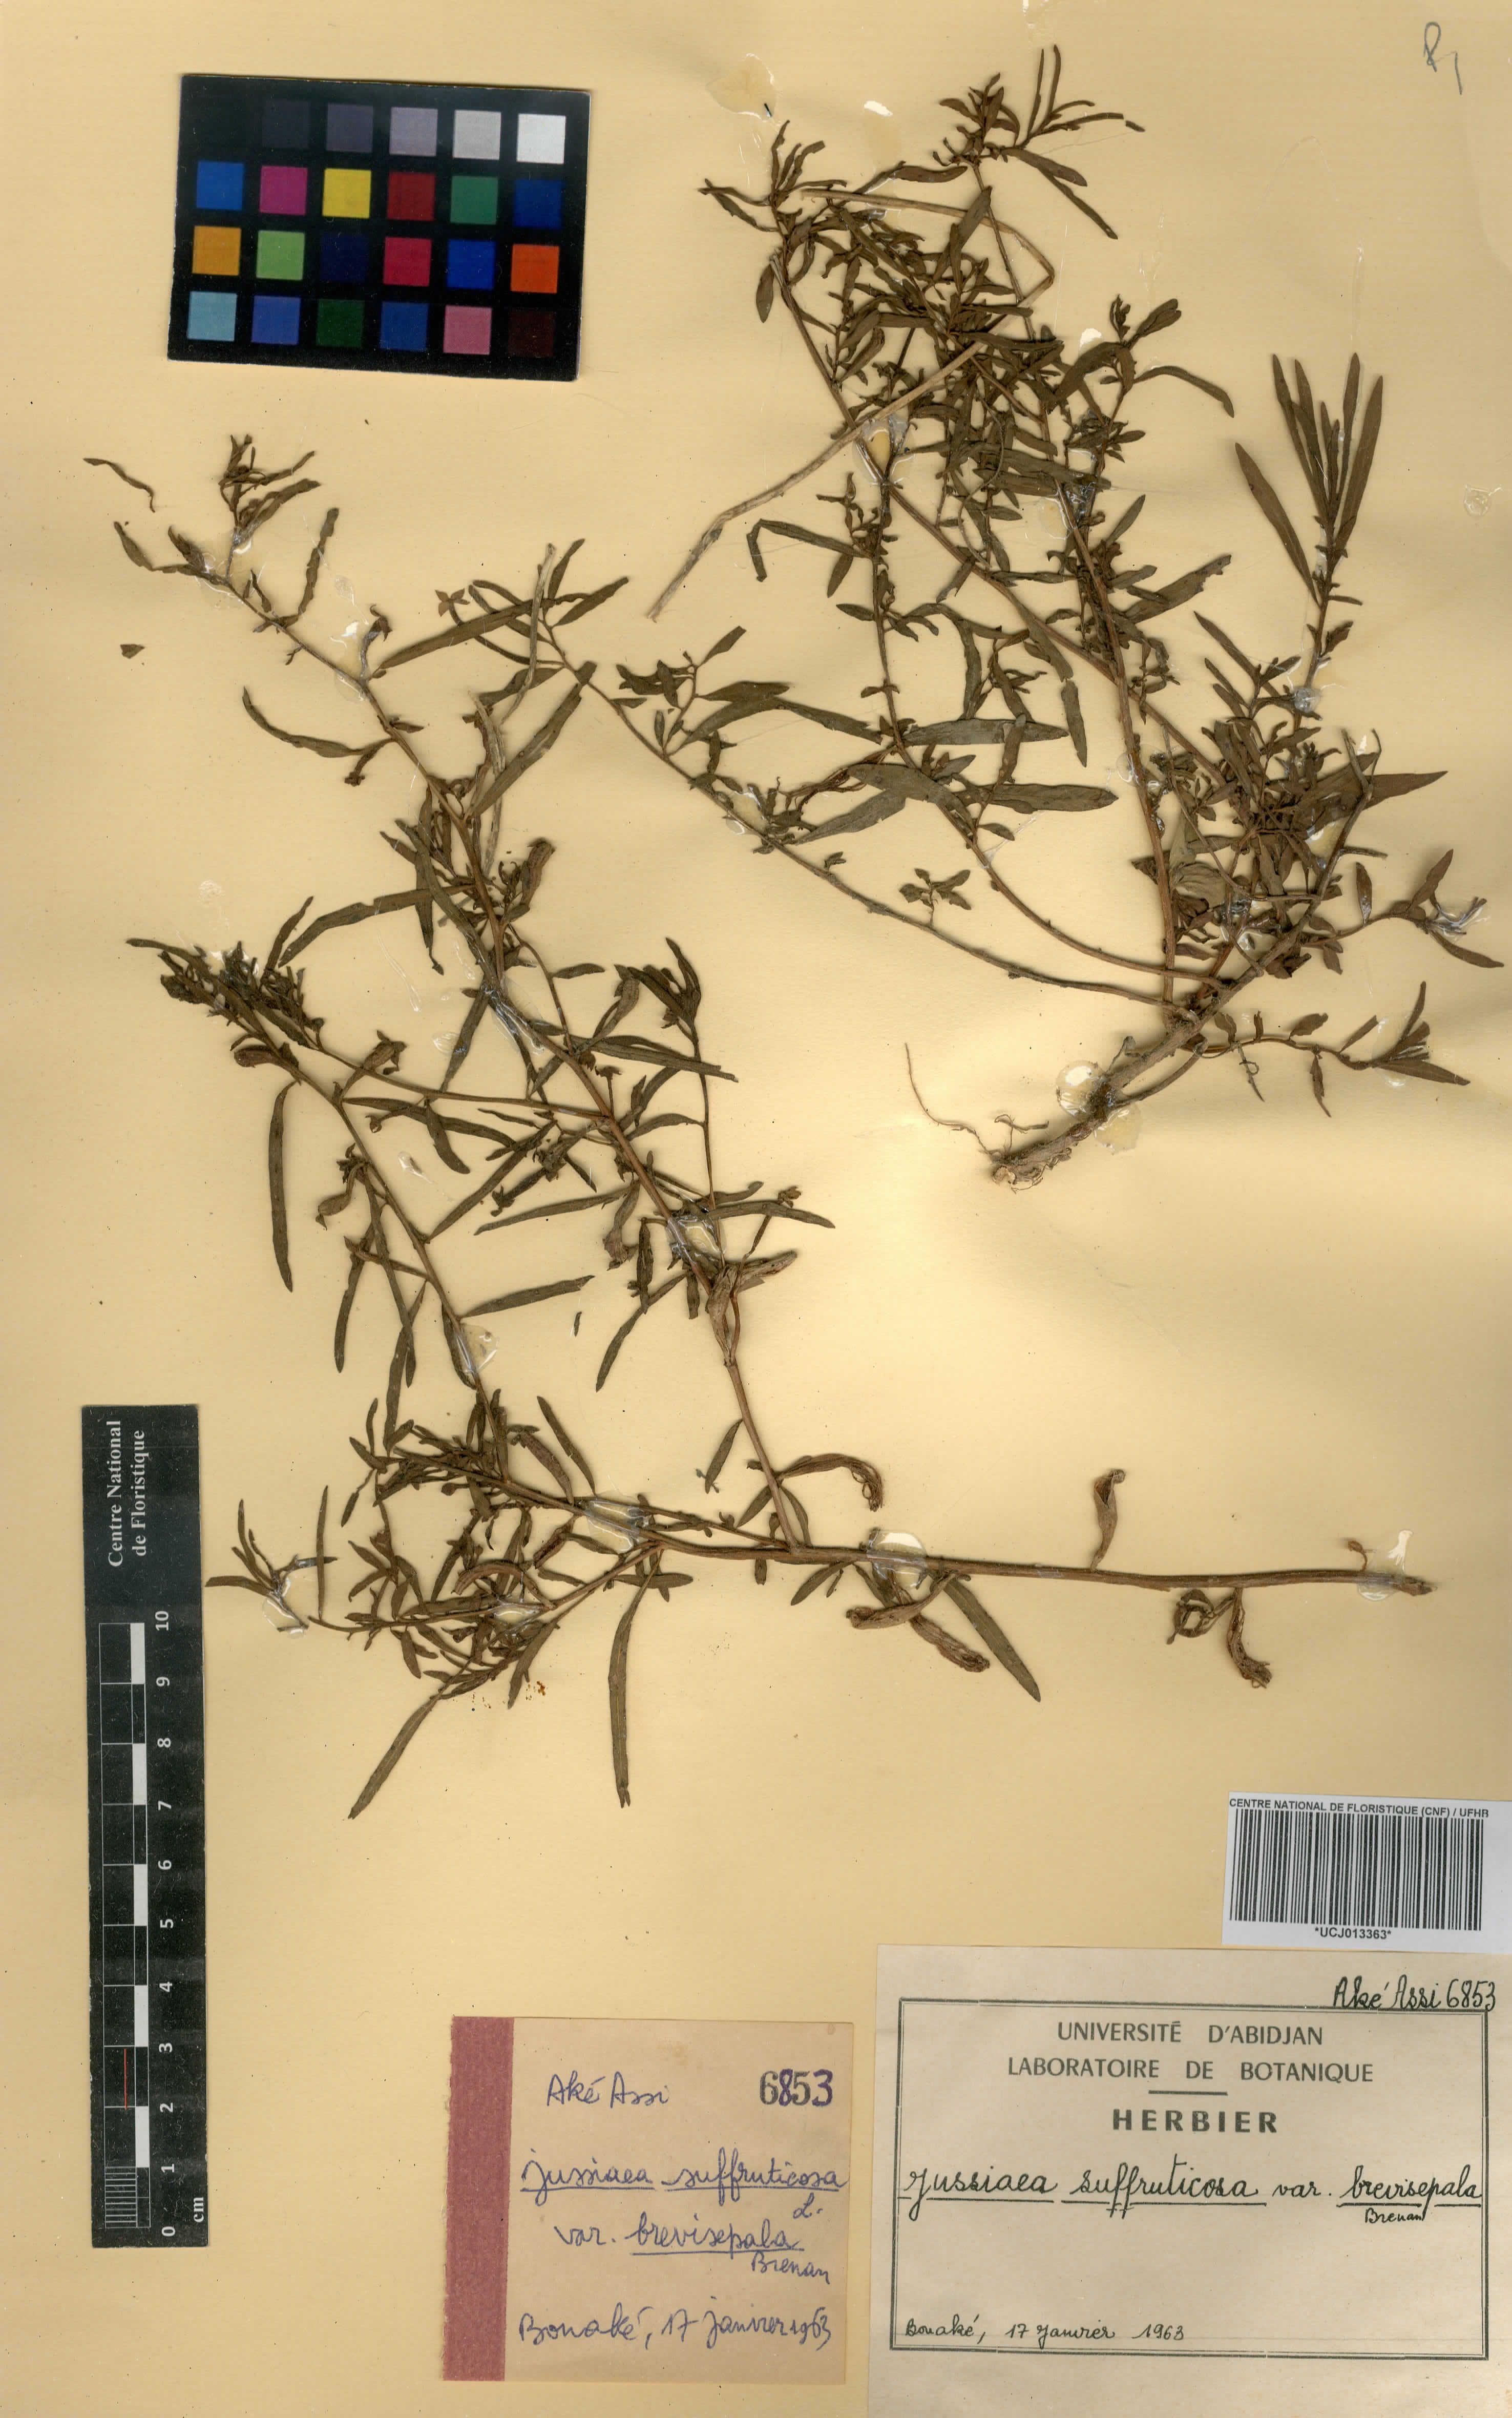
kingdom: Plantae
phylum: Tracheophyta
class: Magnoliopsida
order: Myrtales
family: Onagraceae
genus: Ludwigia
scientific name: Ludwigia octovalvis
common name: Water-primrose
